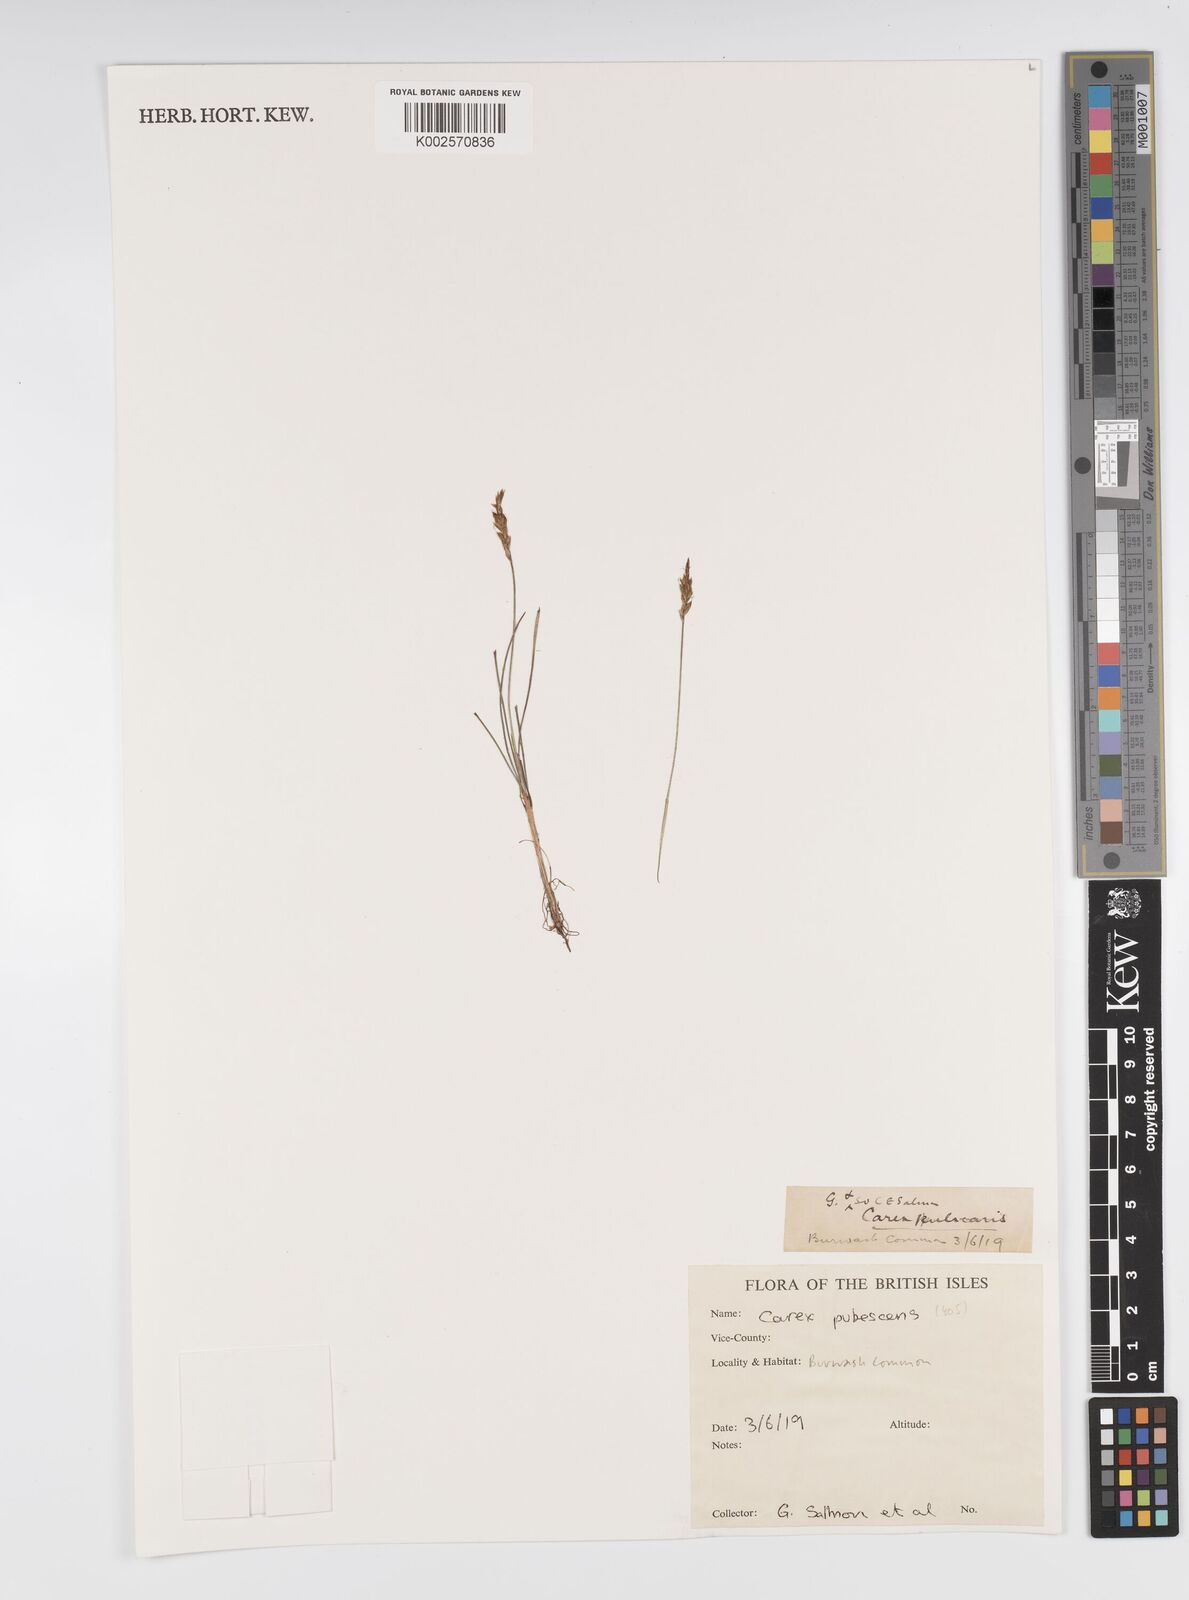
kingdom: Plantae
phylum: Tracheophyta
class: Liliopsida
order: Poales
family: Cyperaceae
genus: Carex
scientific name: Carex montana
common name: Soft-leaved sedge
